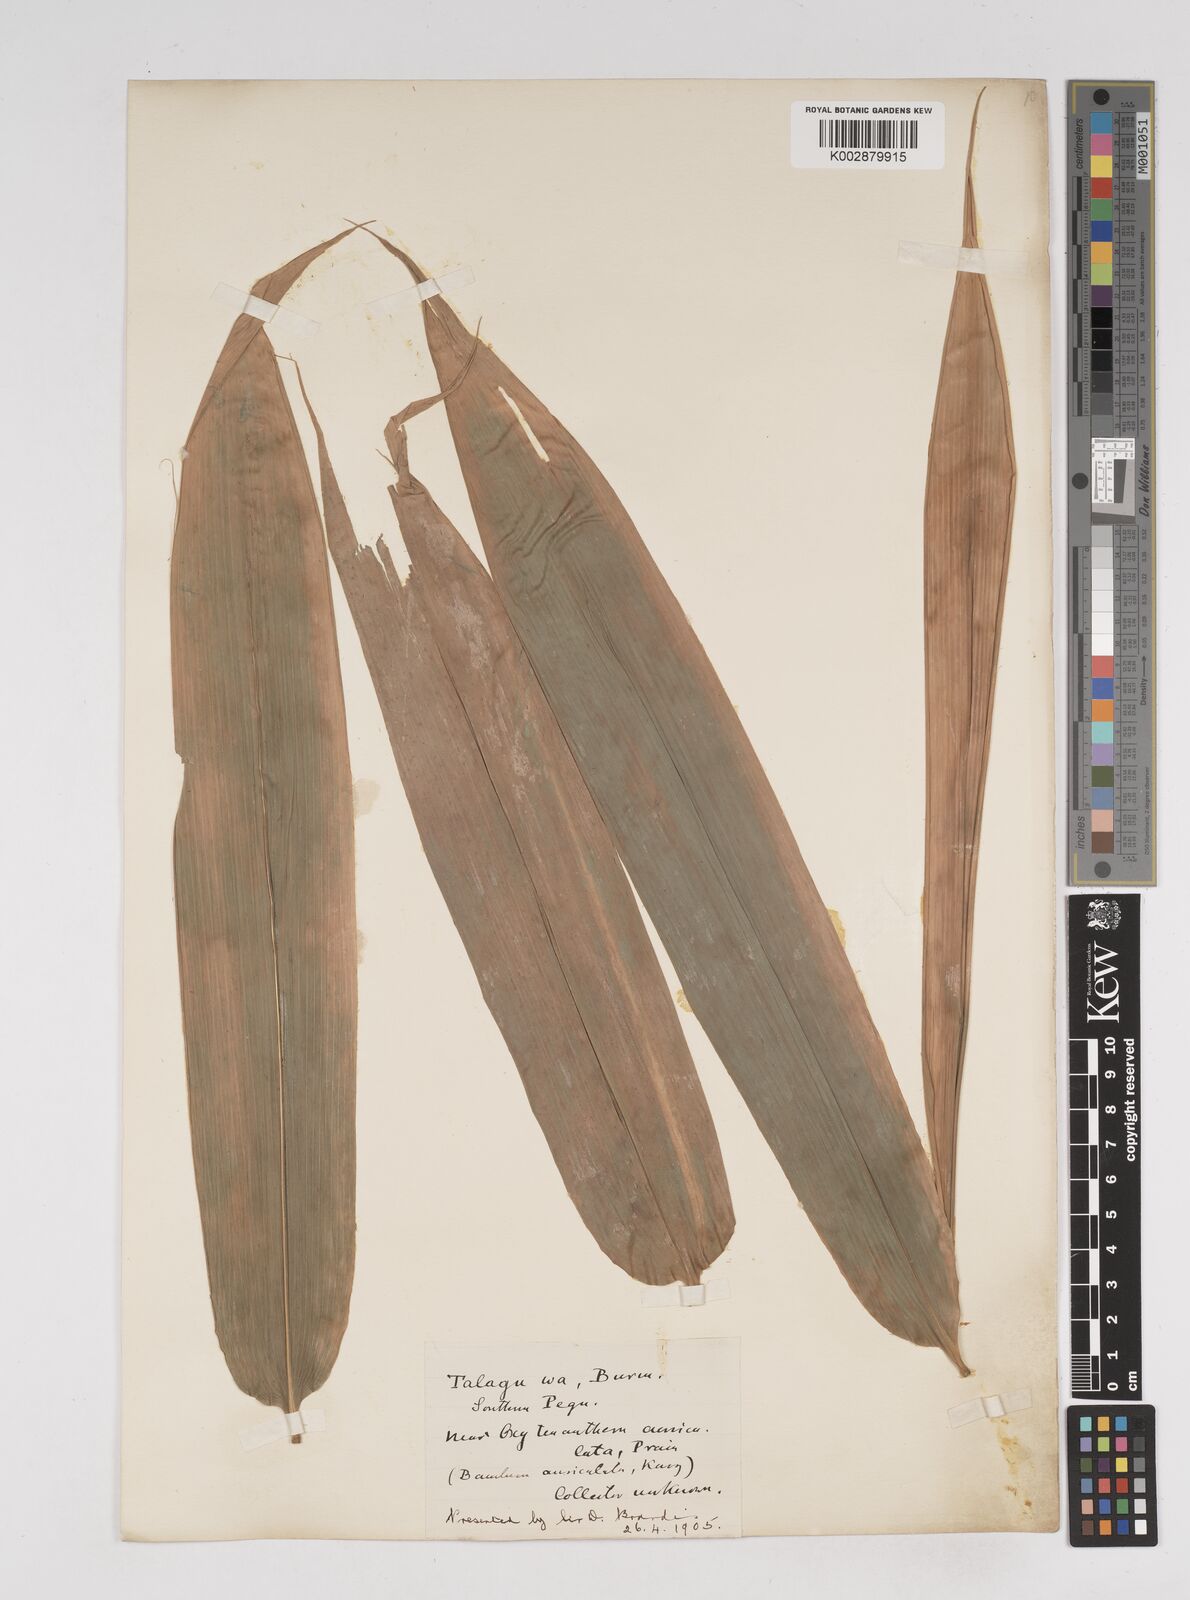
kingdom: Plantae
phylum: Tracheophyta
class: Liliopsida
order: Poales
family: Poaceae
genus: Gigantochloa
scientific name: Gigantochloa
